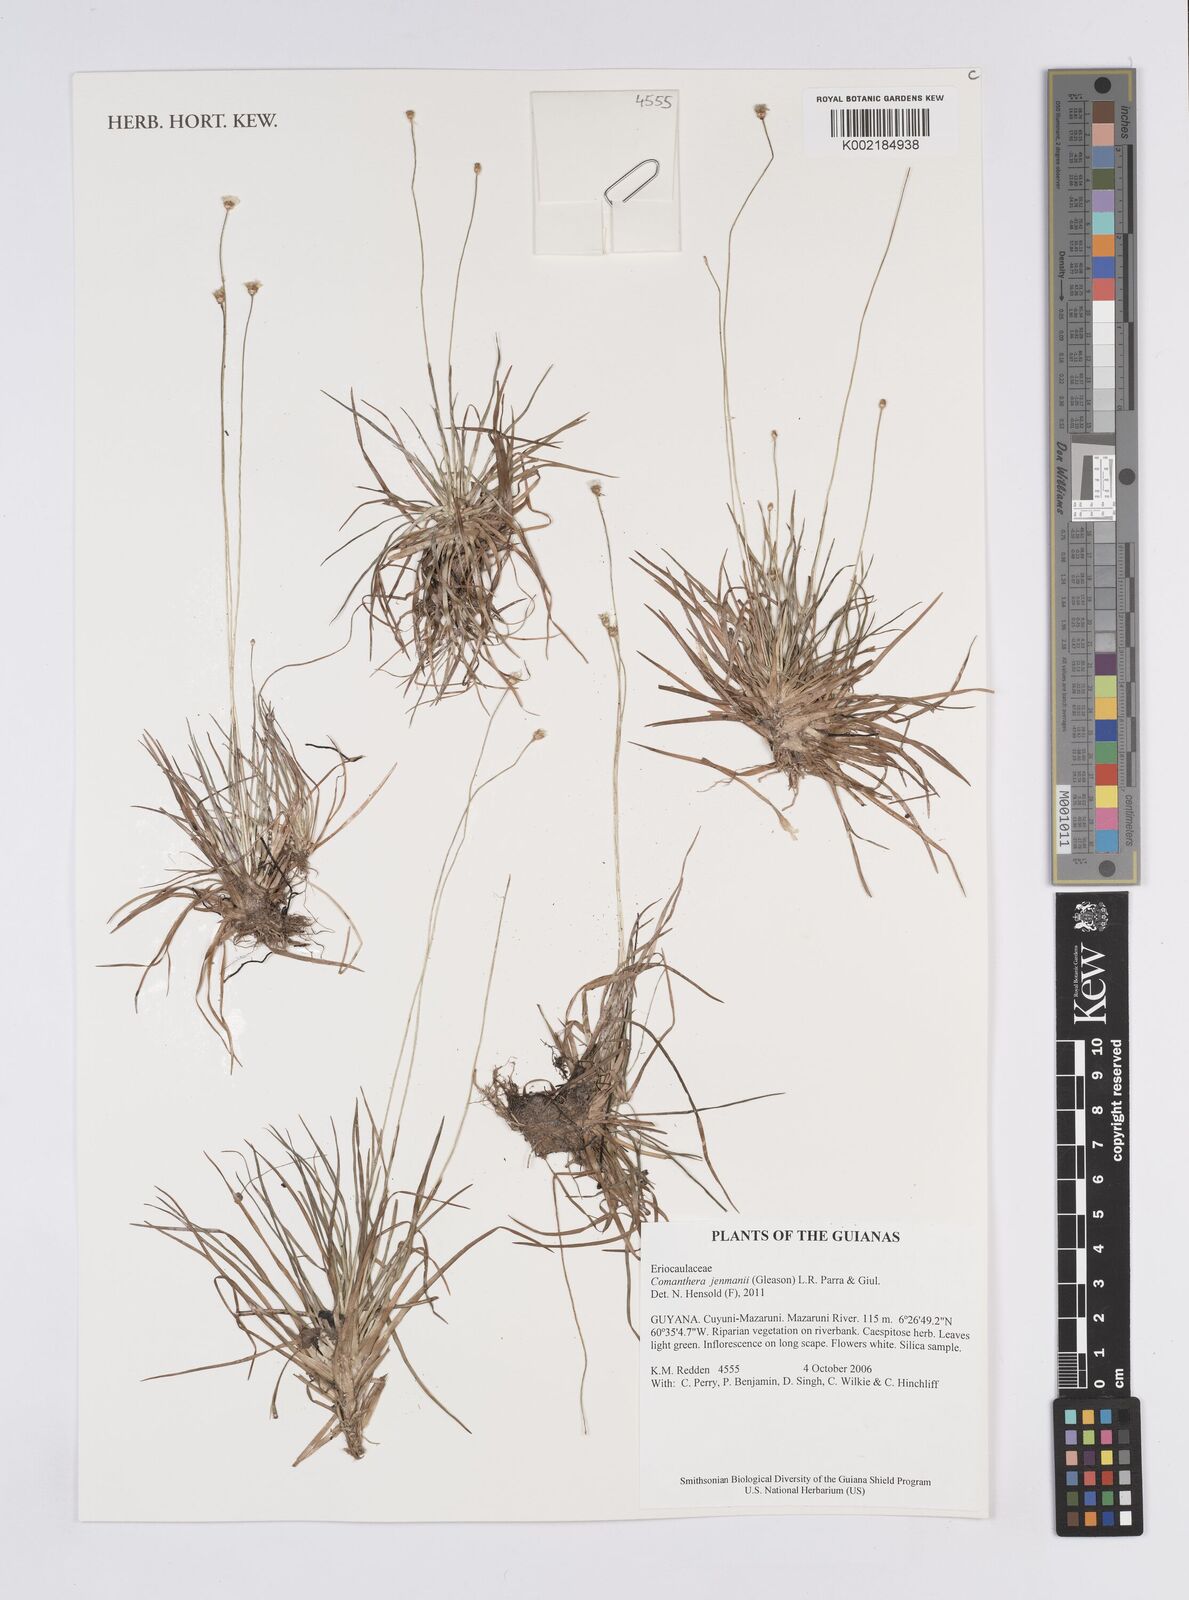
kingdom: Plantae
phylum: Tracheophyta
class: Liliopsida
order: Poales
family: Eriocaulaceae
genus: Comanthera
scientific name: Comanthera jenmanii
